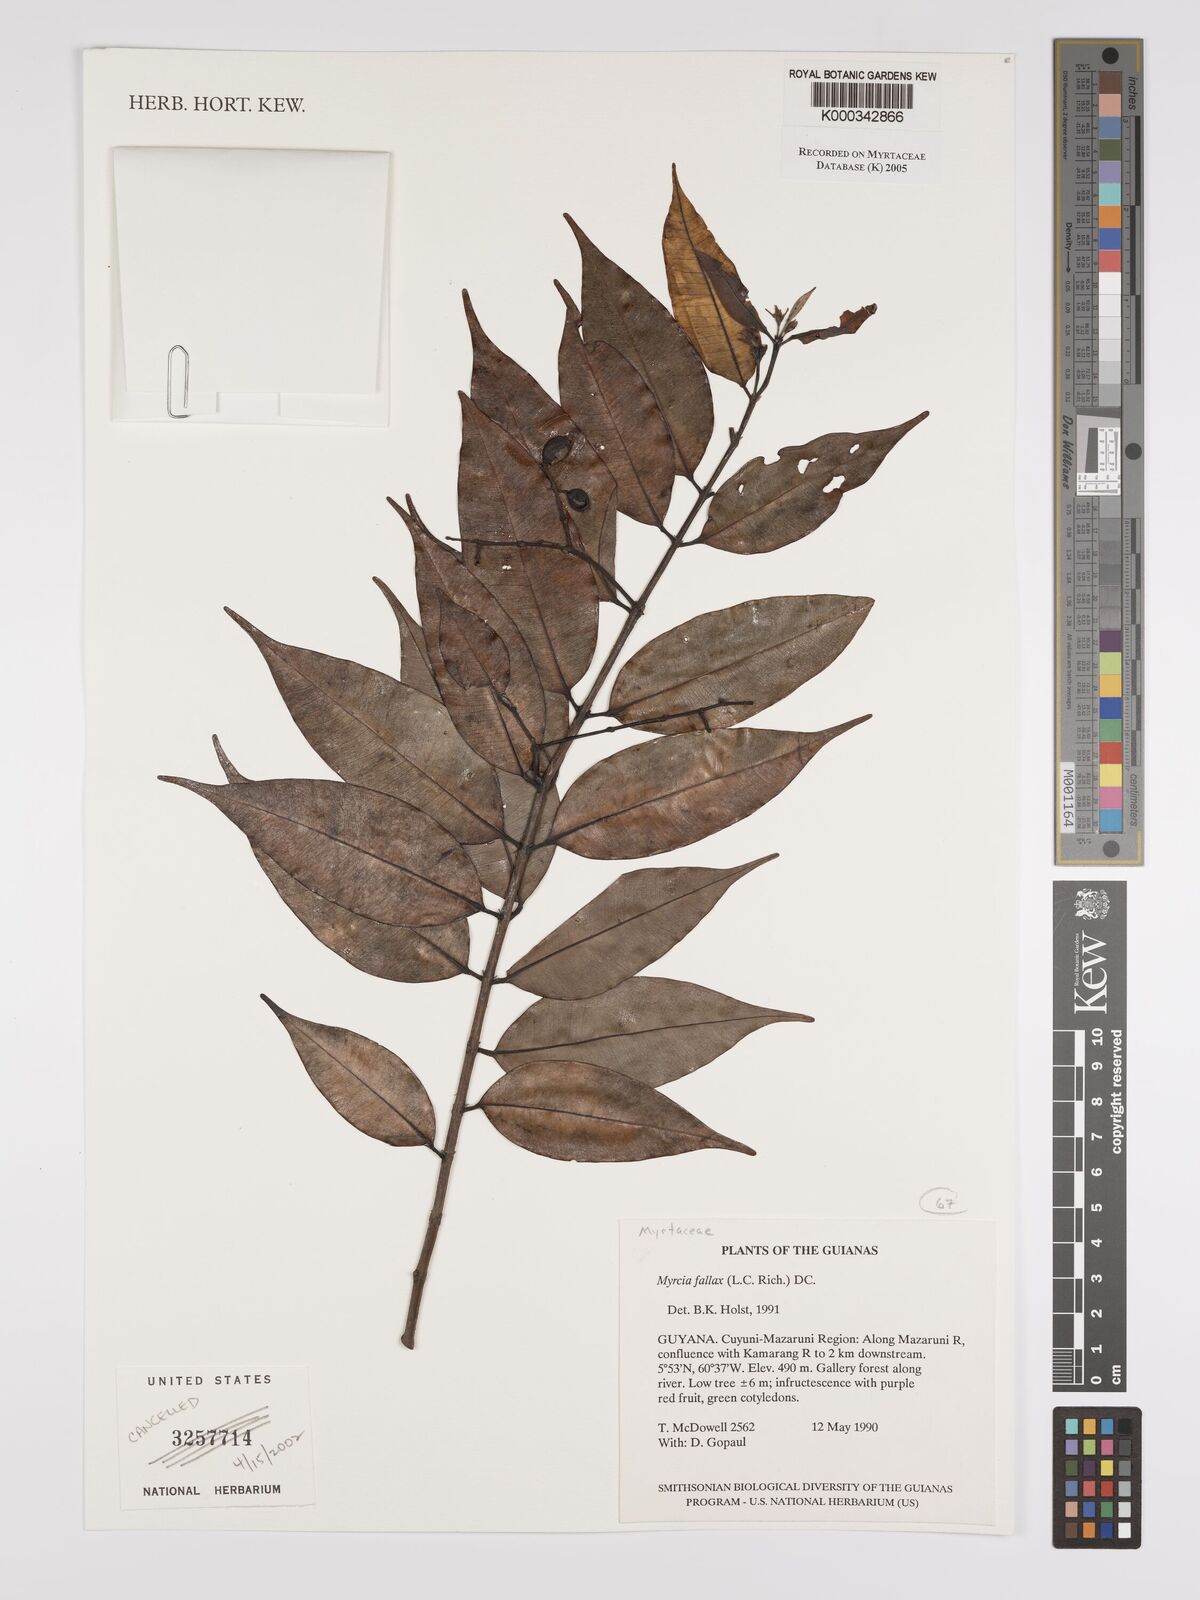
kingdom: Plantae
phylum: Tracheophyta
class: Magnoliopsida
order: Myrtales
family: Myrtaceae
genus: Myrcia
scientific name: Myrcia splendens
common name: Surinam cherry
